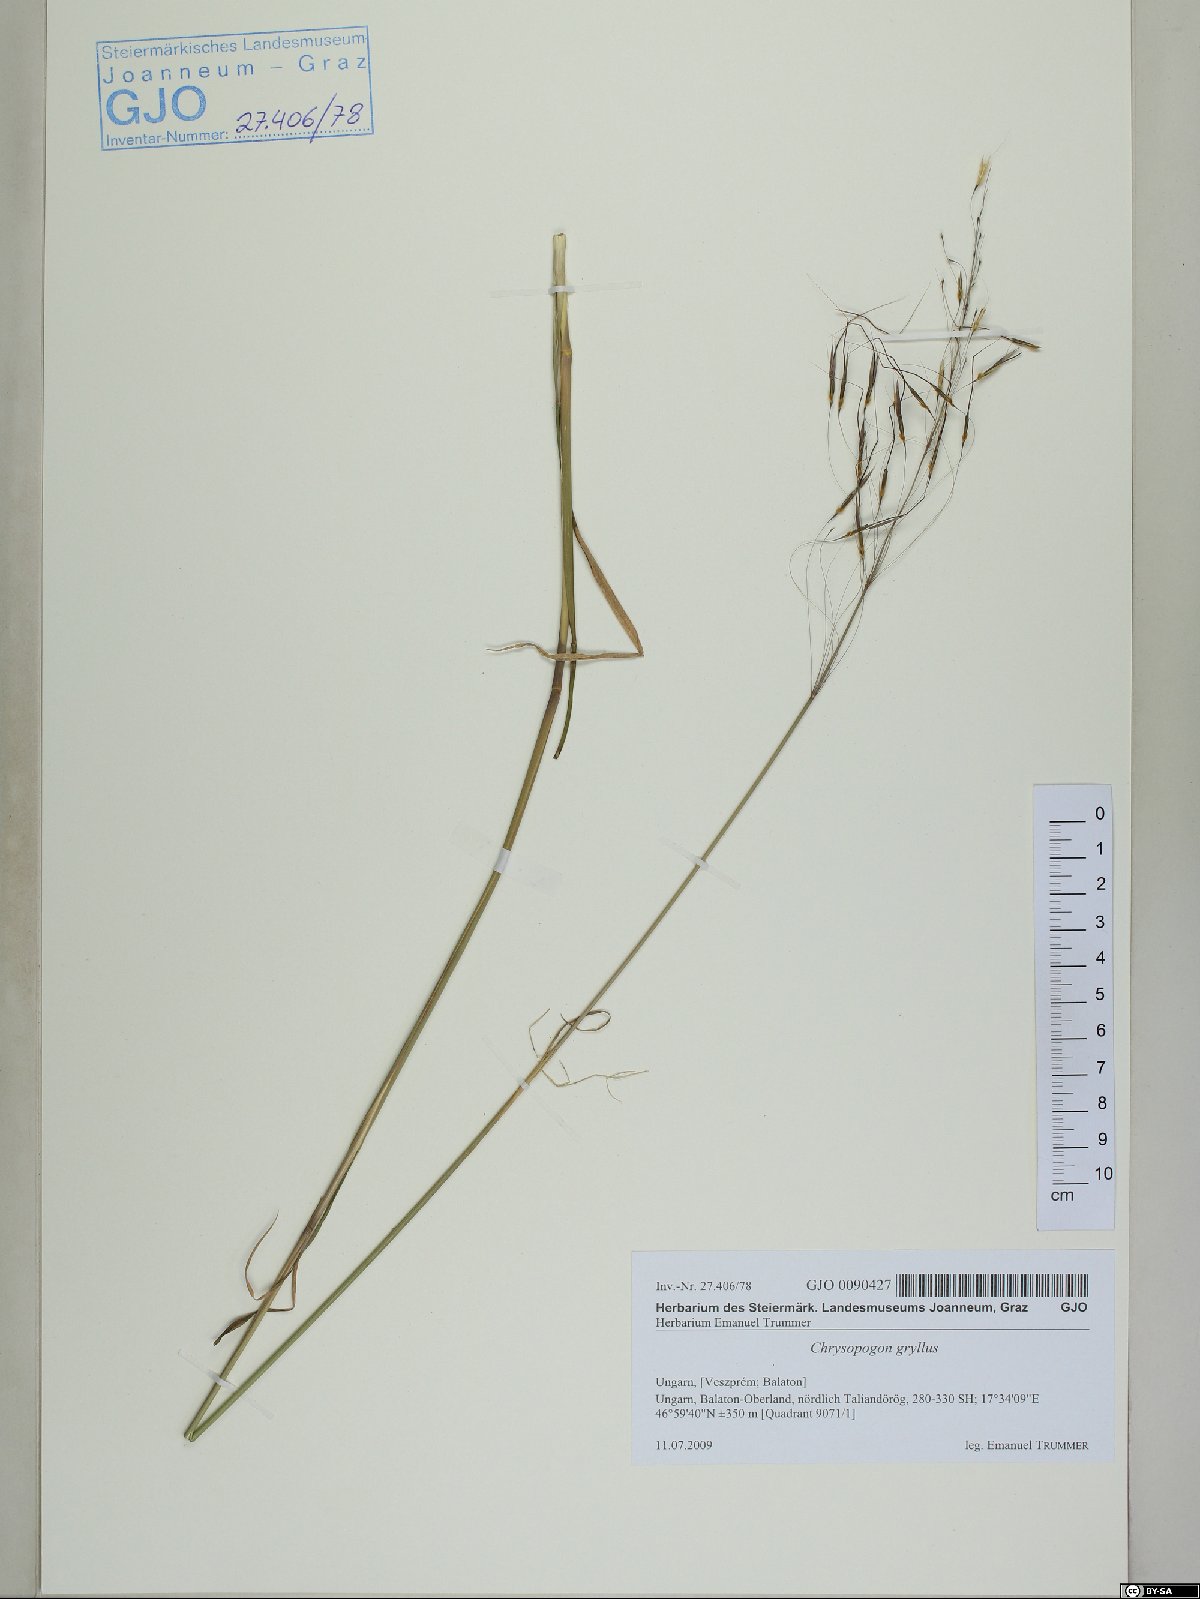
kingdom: Plantae
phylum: Tracheophyta
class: Liliopsida
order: Poales
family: Poaceae
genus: Chrysopogon
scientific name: Chrysopogon gryllus
